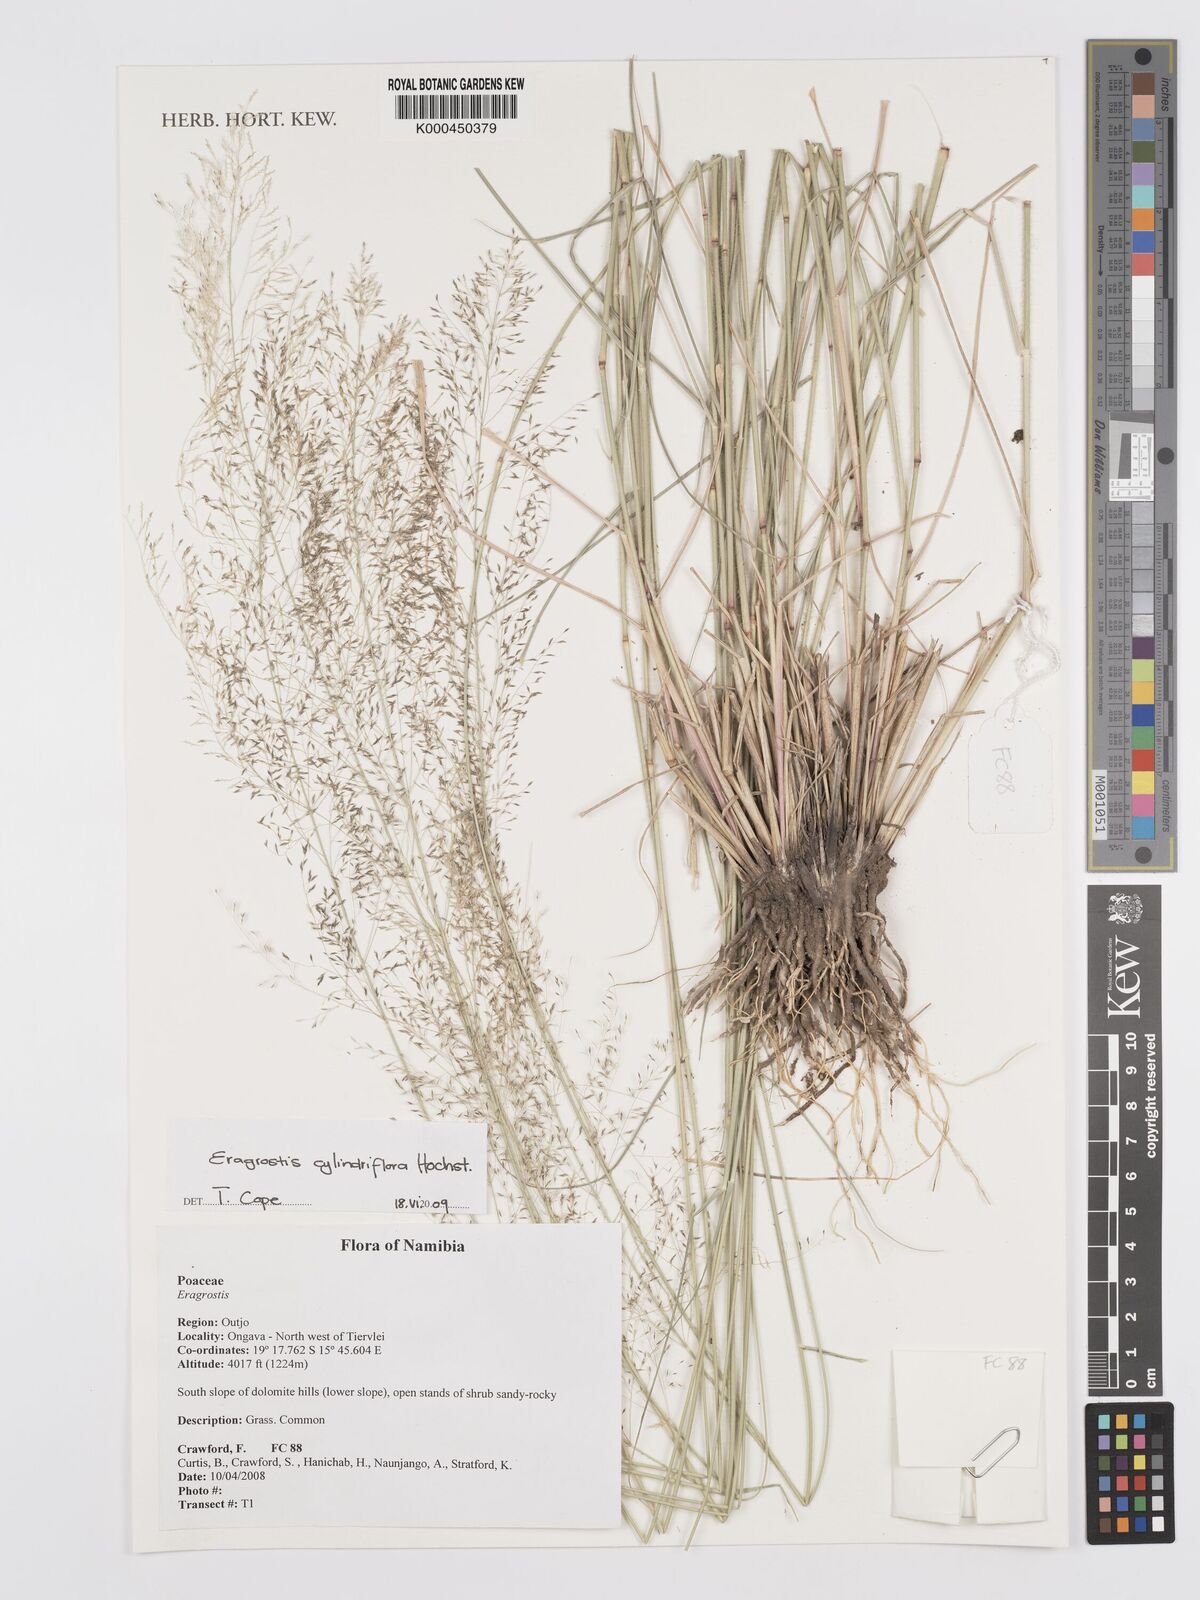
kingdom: Plantae
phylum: Tracheophyta
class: Liliopsida
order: Poales
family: Poaceae
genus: Eragrostis
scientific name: Eragrostis cylindriflora
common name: Cylinderflower lovegrass
